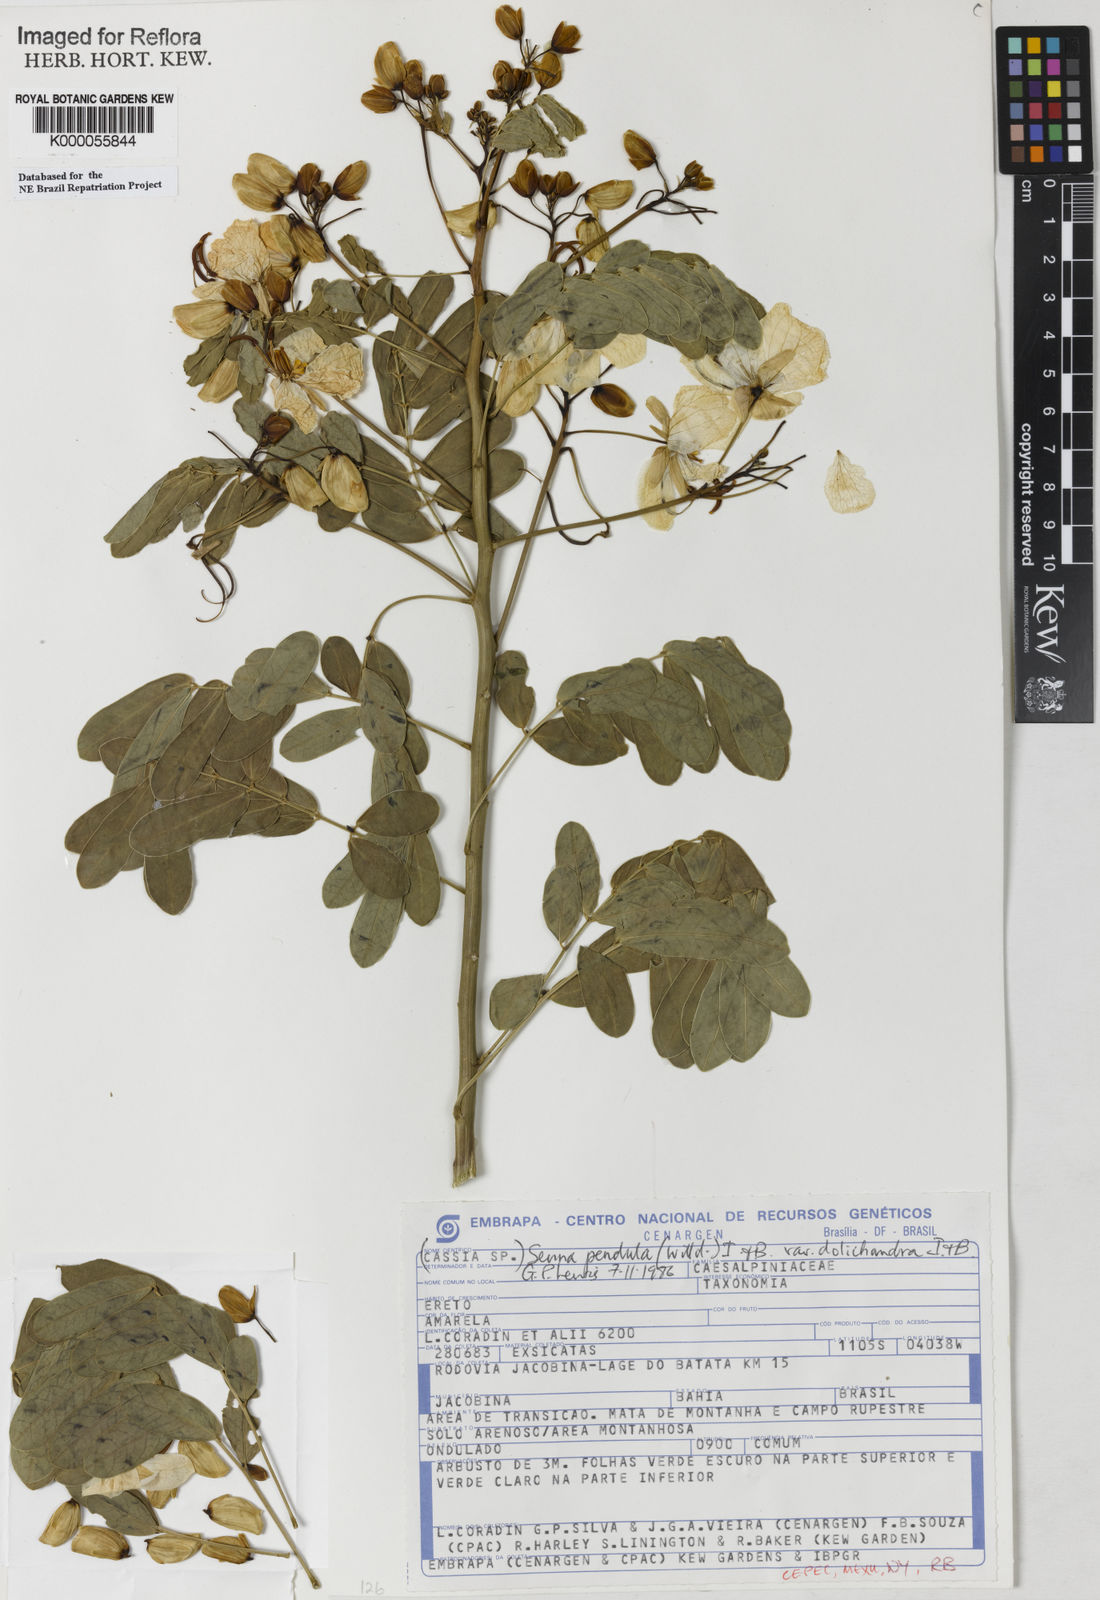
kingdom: Plantae
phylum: Tracheophyta
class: Magnoliopsida
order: Fabales
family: Fabaceae
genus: Senna
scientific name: Senna pendula
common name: Easter cassia
